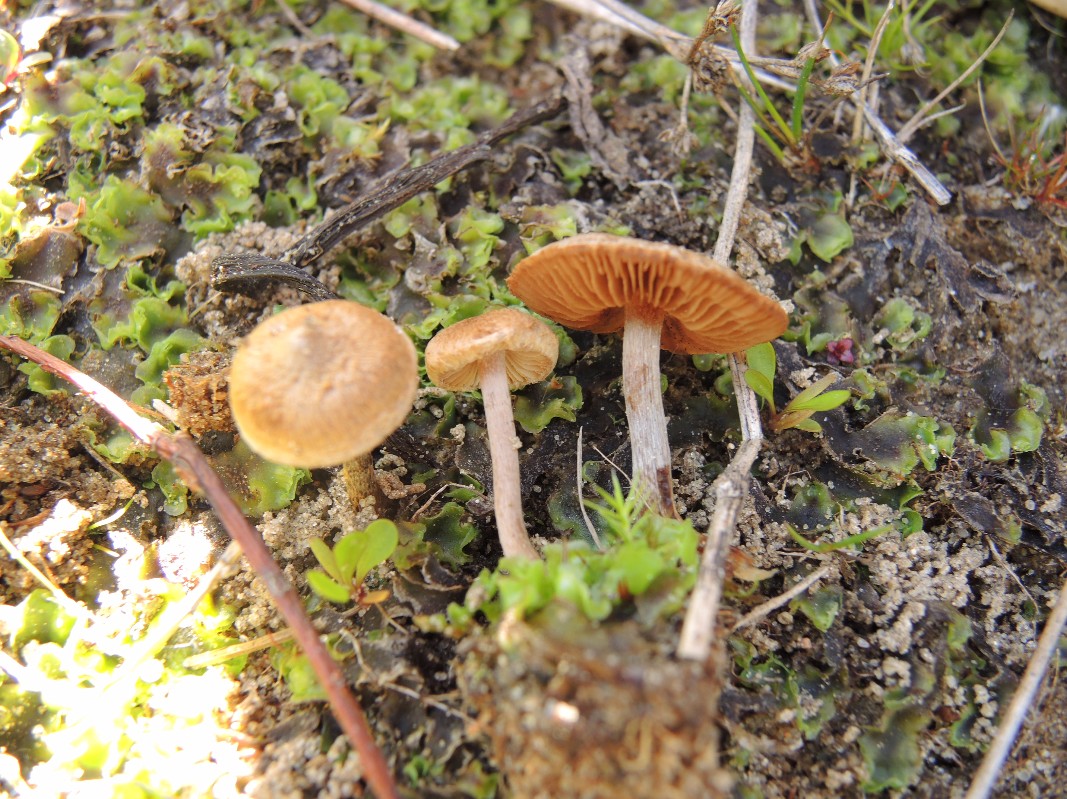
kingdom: Fungi
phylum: Basidiomycota
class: Agaricomycetes
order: Agaricales
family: Inocybaceae
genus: Inocybe
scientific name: Inocybe lacera
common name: laset trævlhat
